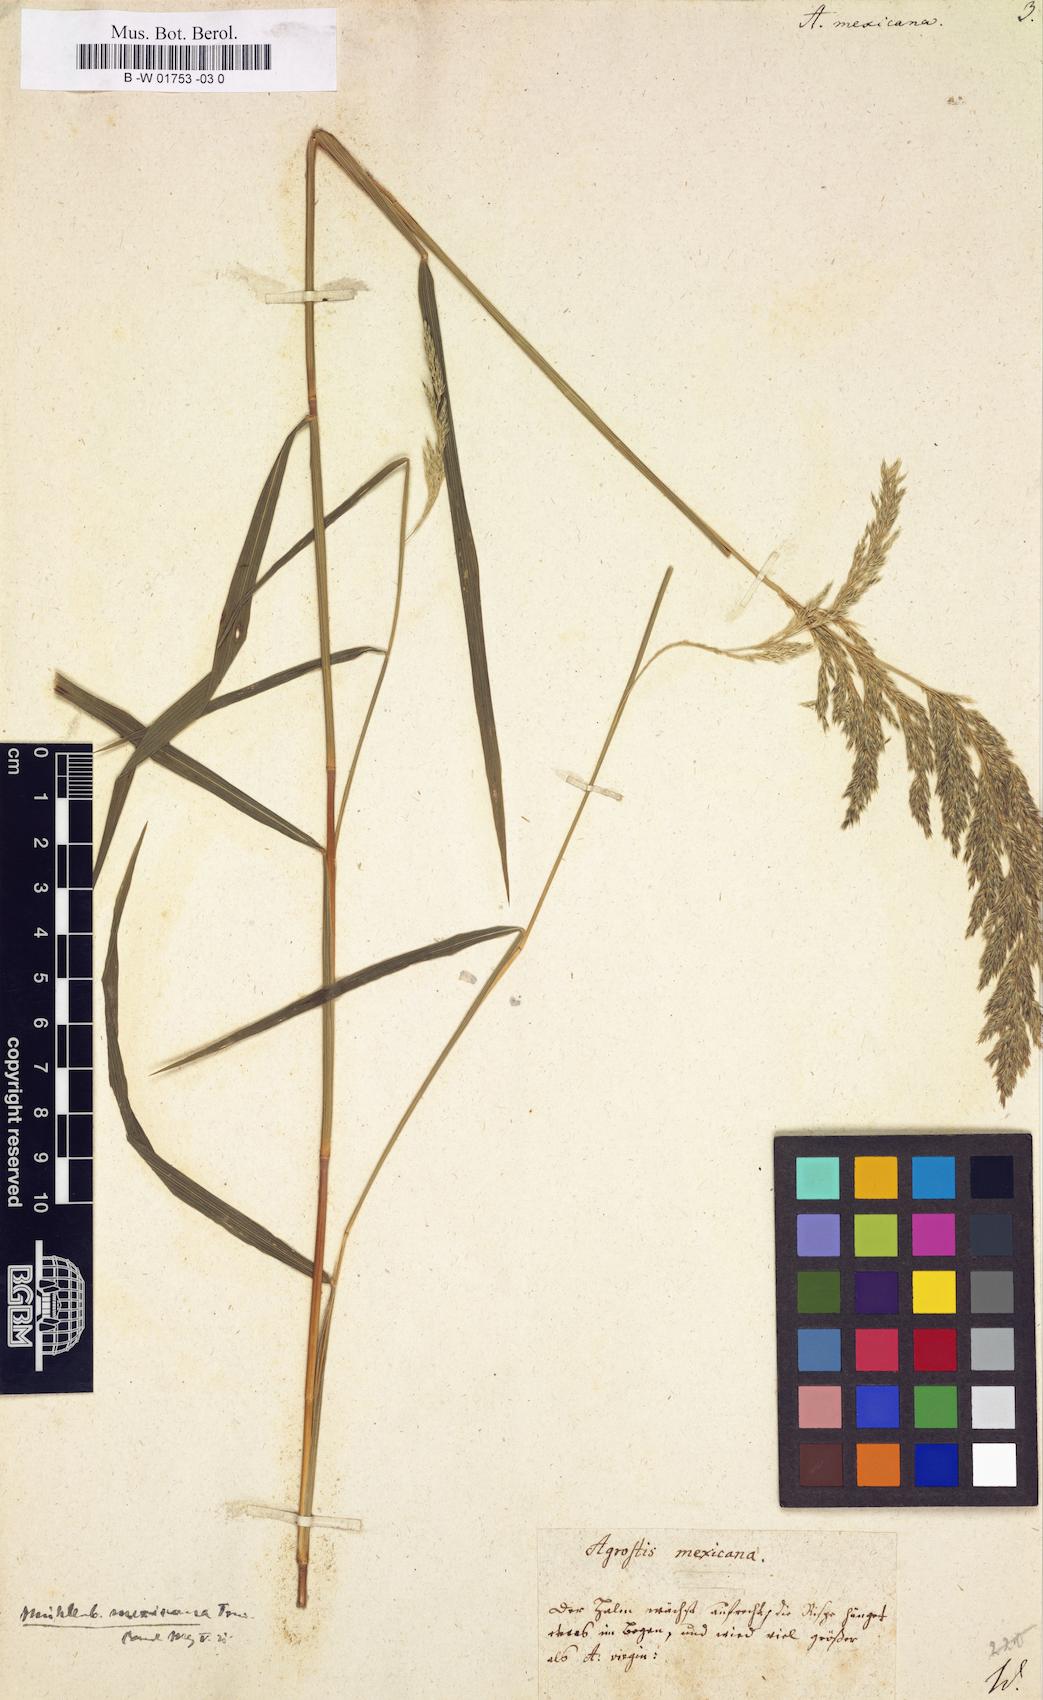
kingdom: Plantae
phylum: Tracheophyta
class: Liliopsida
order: Poales
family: Poaceae
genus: Agrostis
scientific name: Agrostis mexicana
